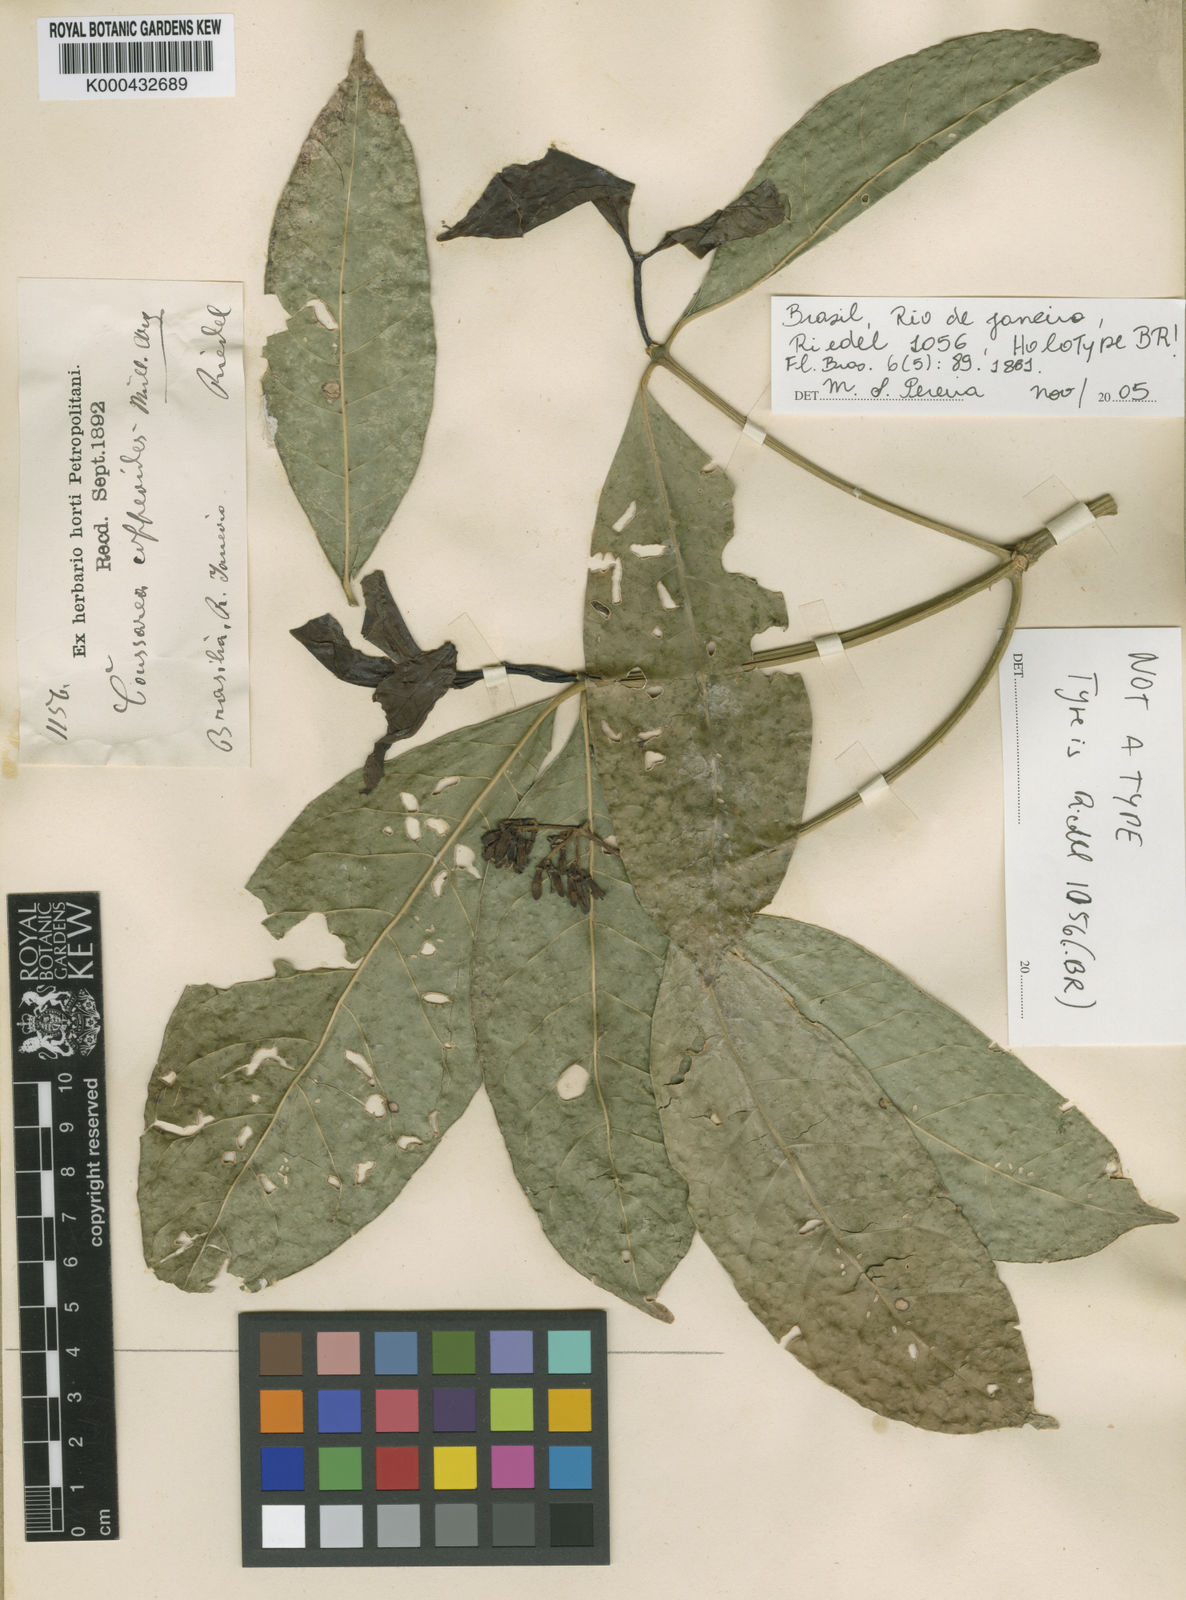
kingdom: Plantae
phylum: Tracheophyta
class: Magnoliopsida
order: Gentianales
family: Rubiaceae
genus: Coussarea
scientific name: Coussarea
